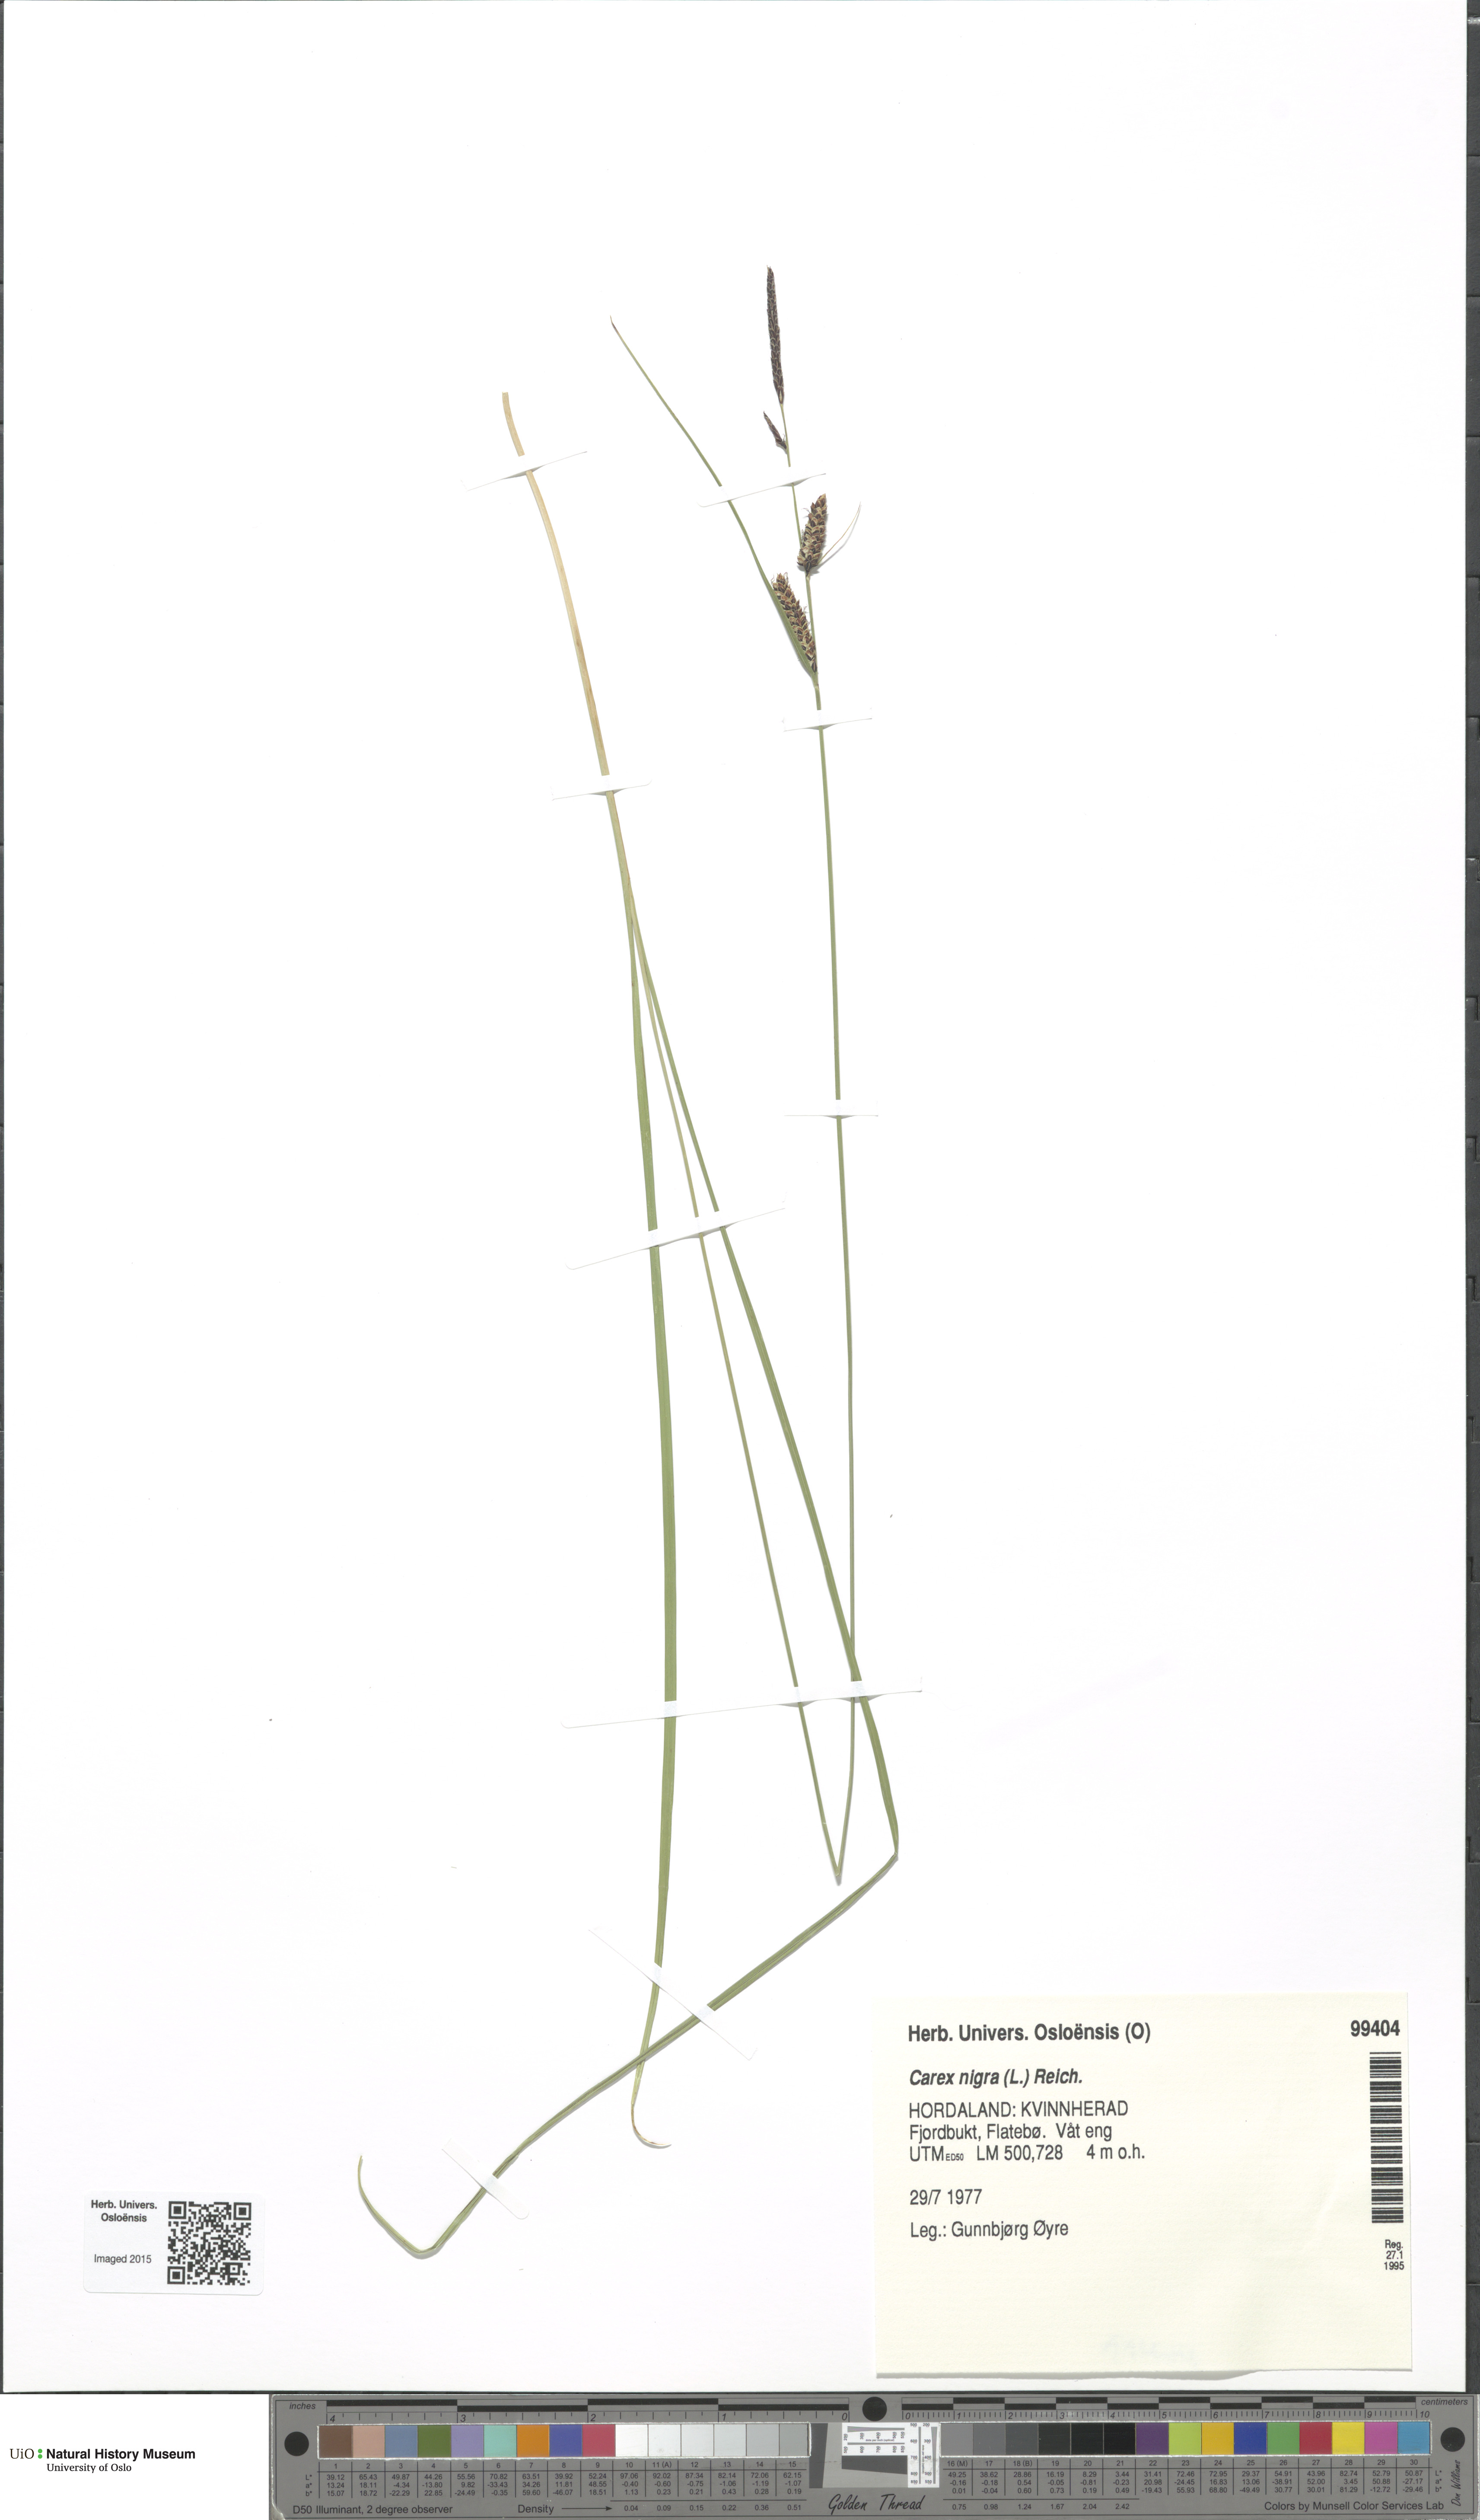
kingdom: Plantae
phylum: Tracheophyta
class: Liliopsida
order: Poales
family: Cyperaceae
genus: Carex
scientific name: Carex nigra
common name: Common sedge
